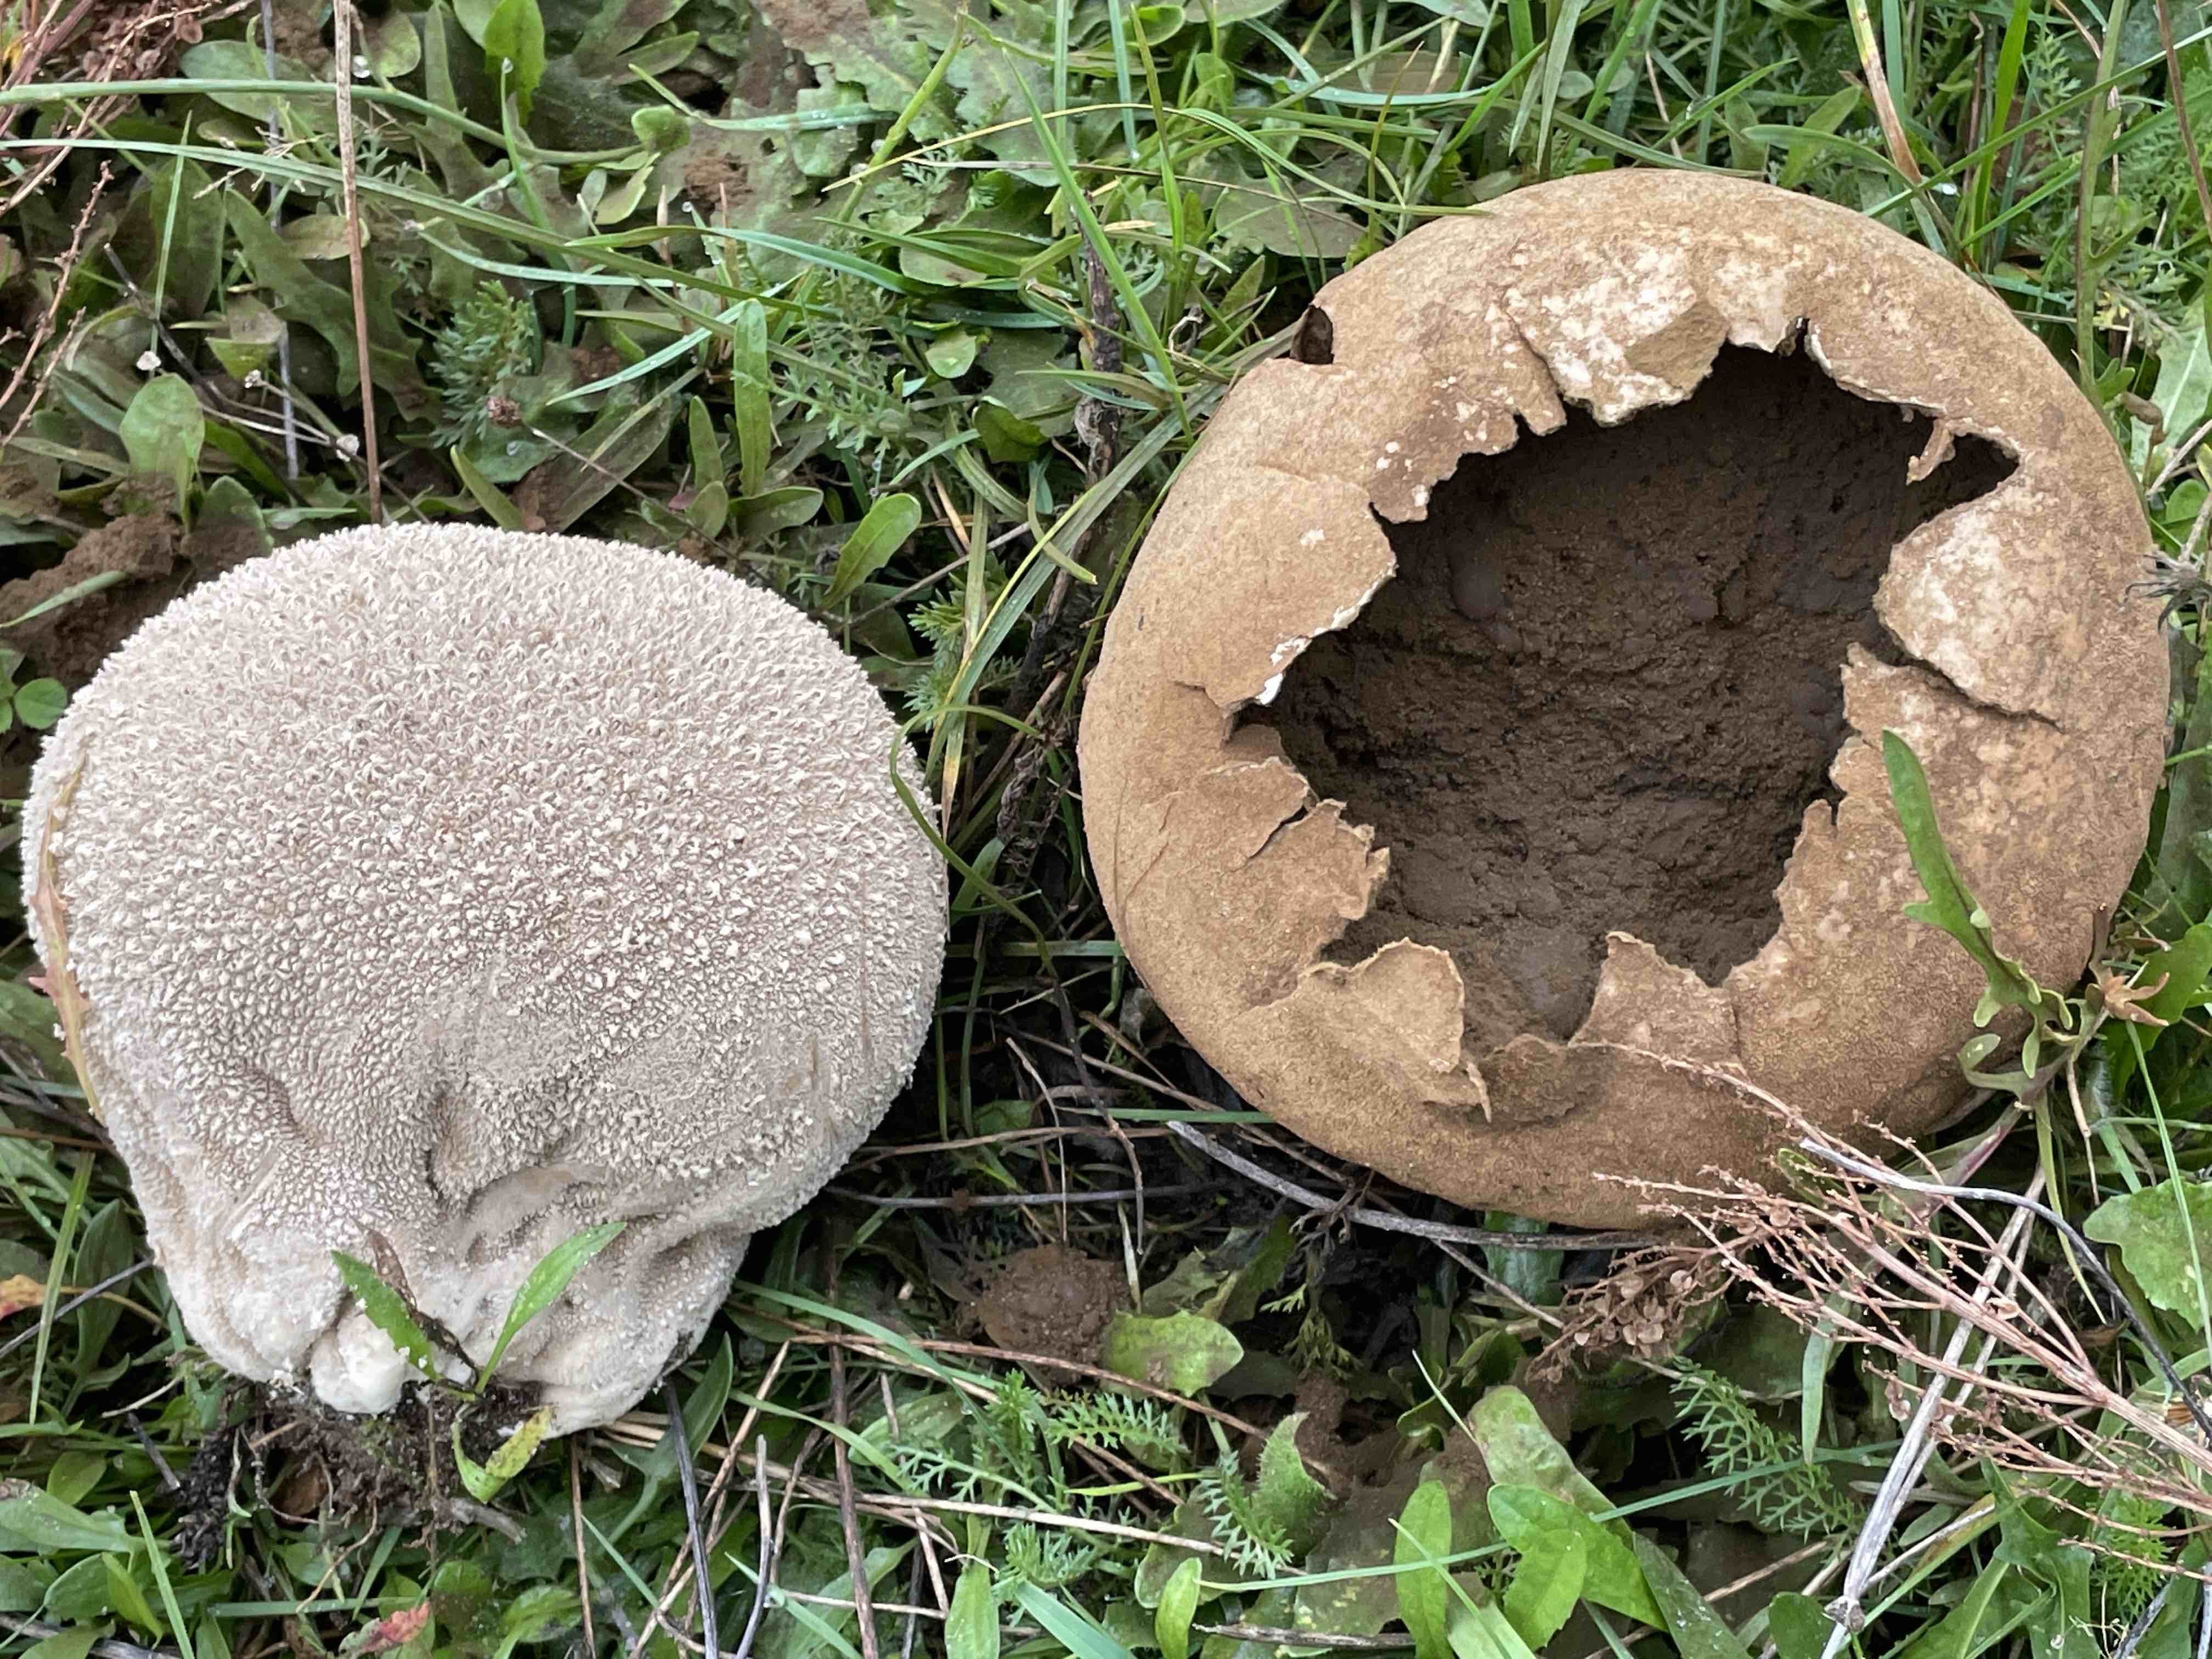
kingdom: Fungi
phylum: Basidiomycota
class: Agaricomycetes
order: Agaricales
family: Lycoperdaceae
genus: Bovistella
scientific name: Bovistella utriformis
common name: skællet støvbold
